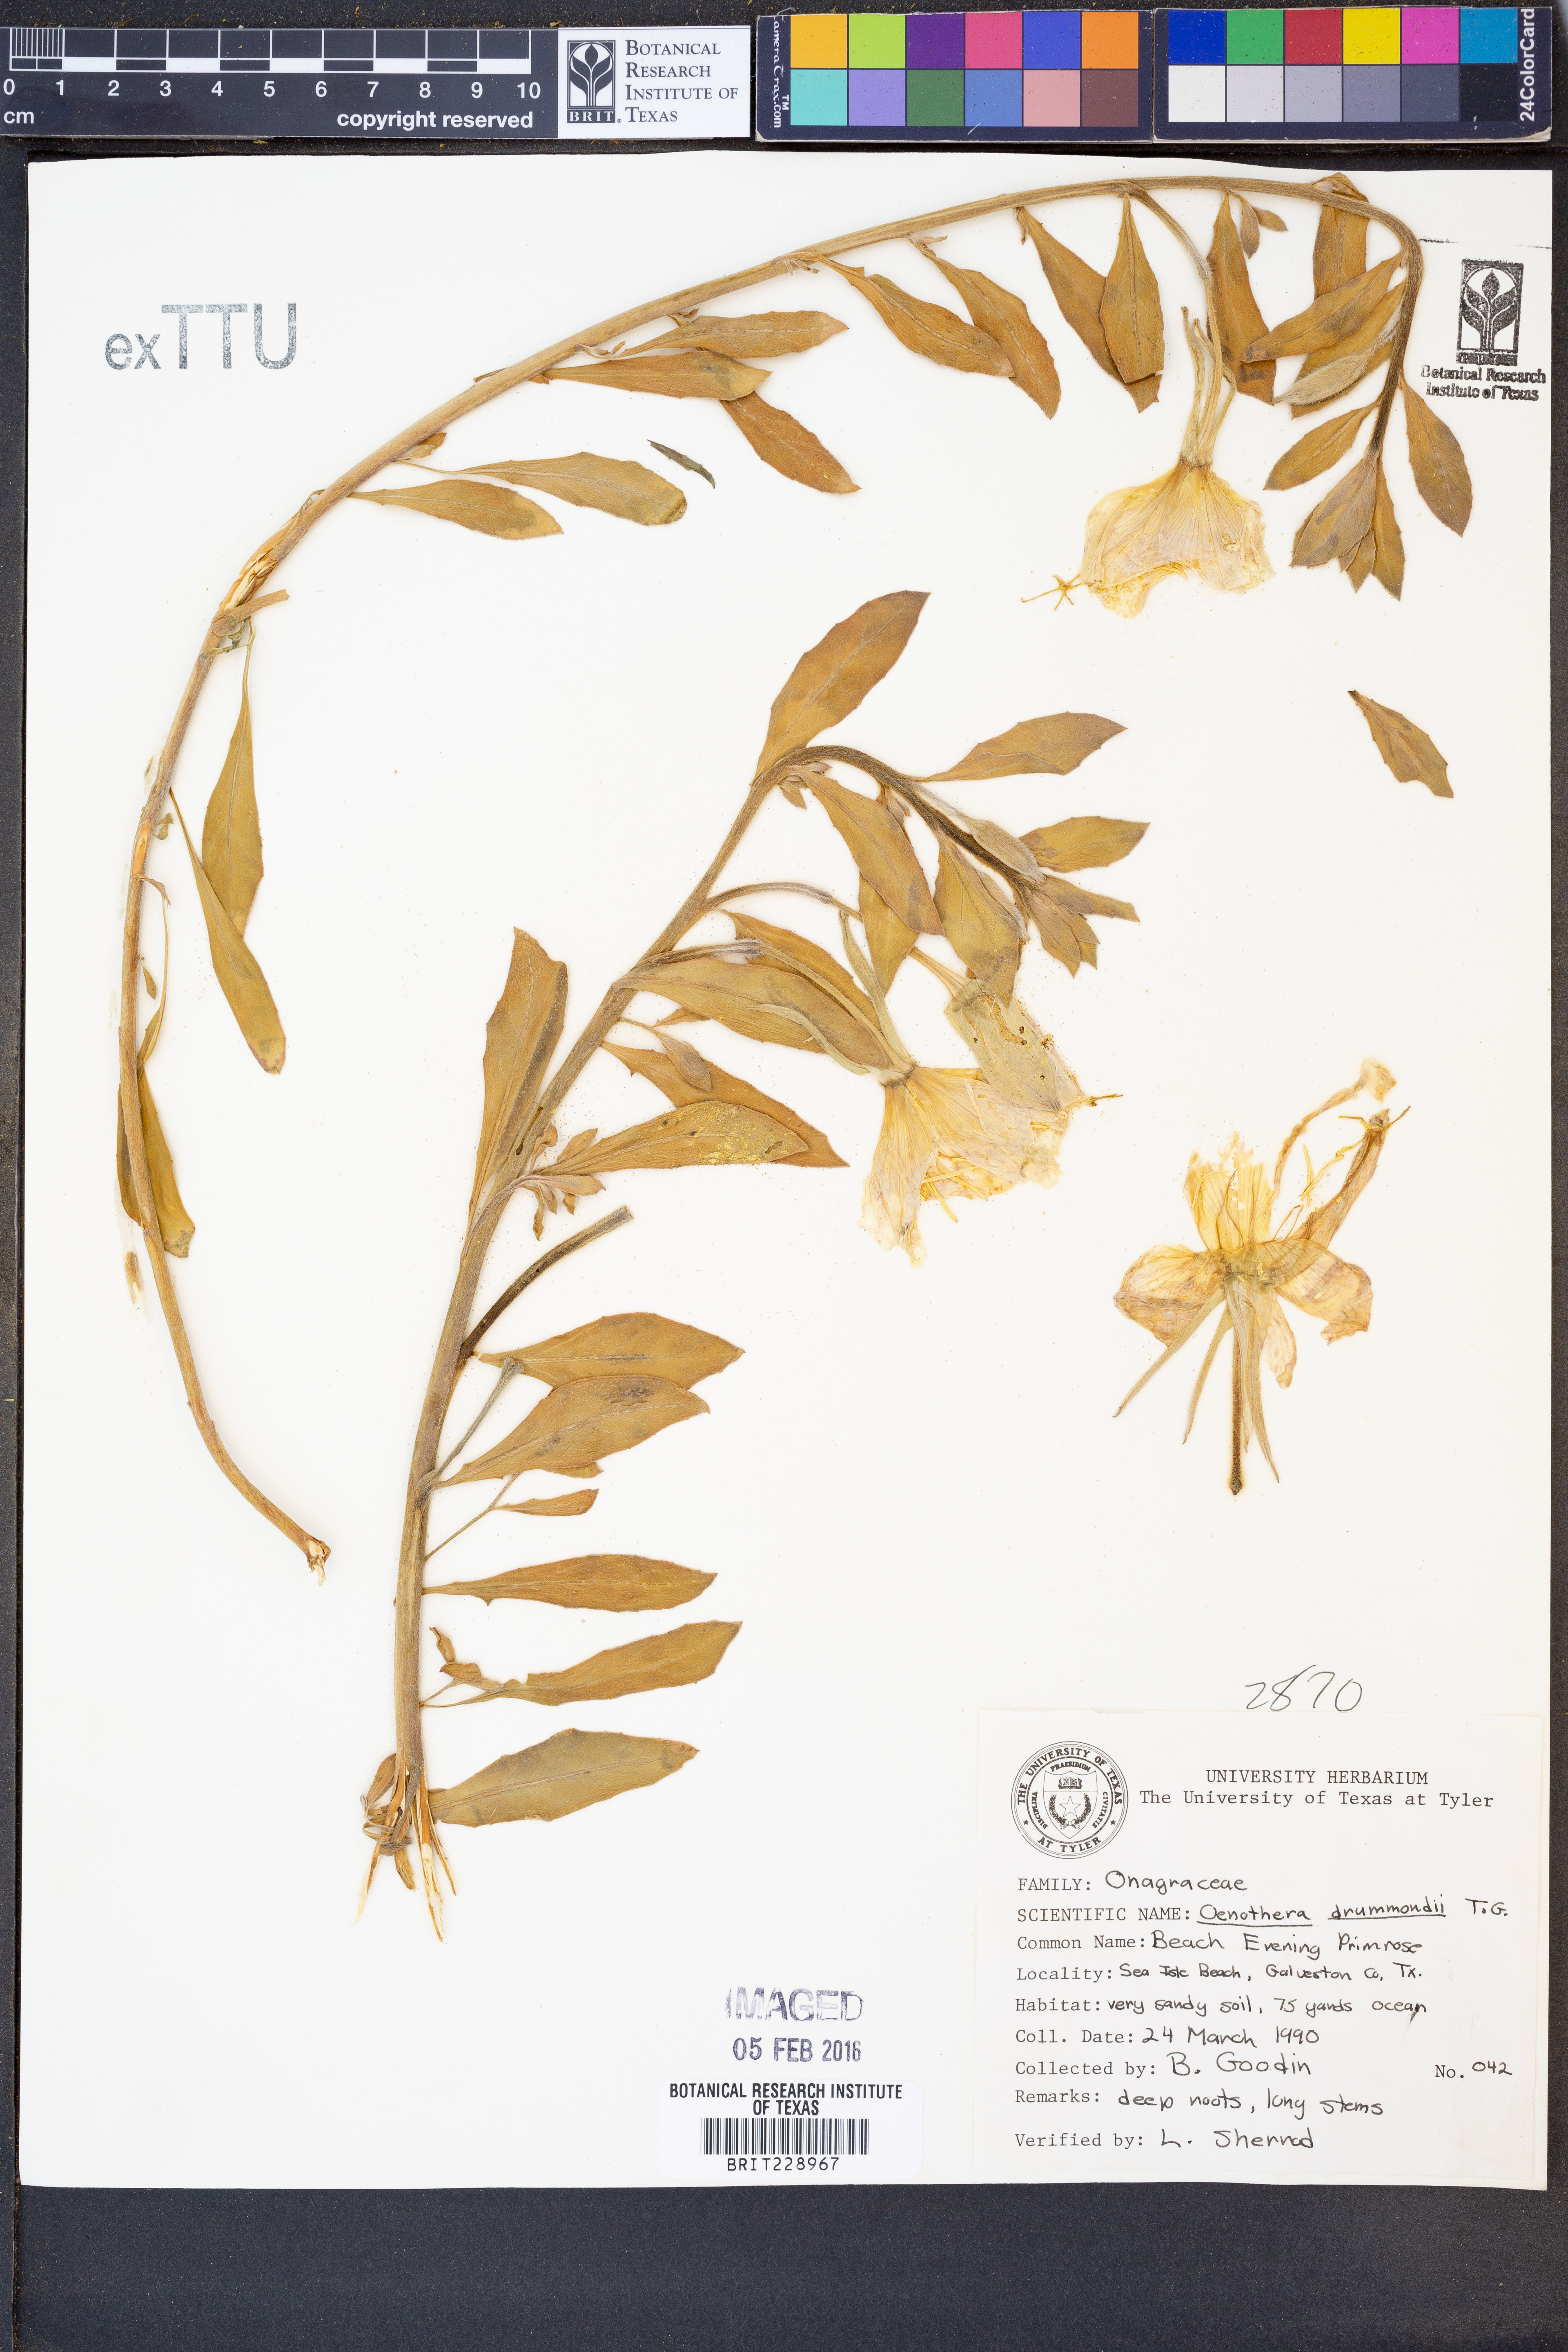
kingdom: Plantae
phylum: Tracheophyta
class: Magnoliopsida
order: Myrtales
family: Onagraceae
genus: Oenothera
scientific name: Oenothera drummondii
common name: Beach evening-primrose
